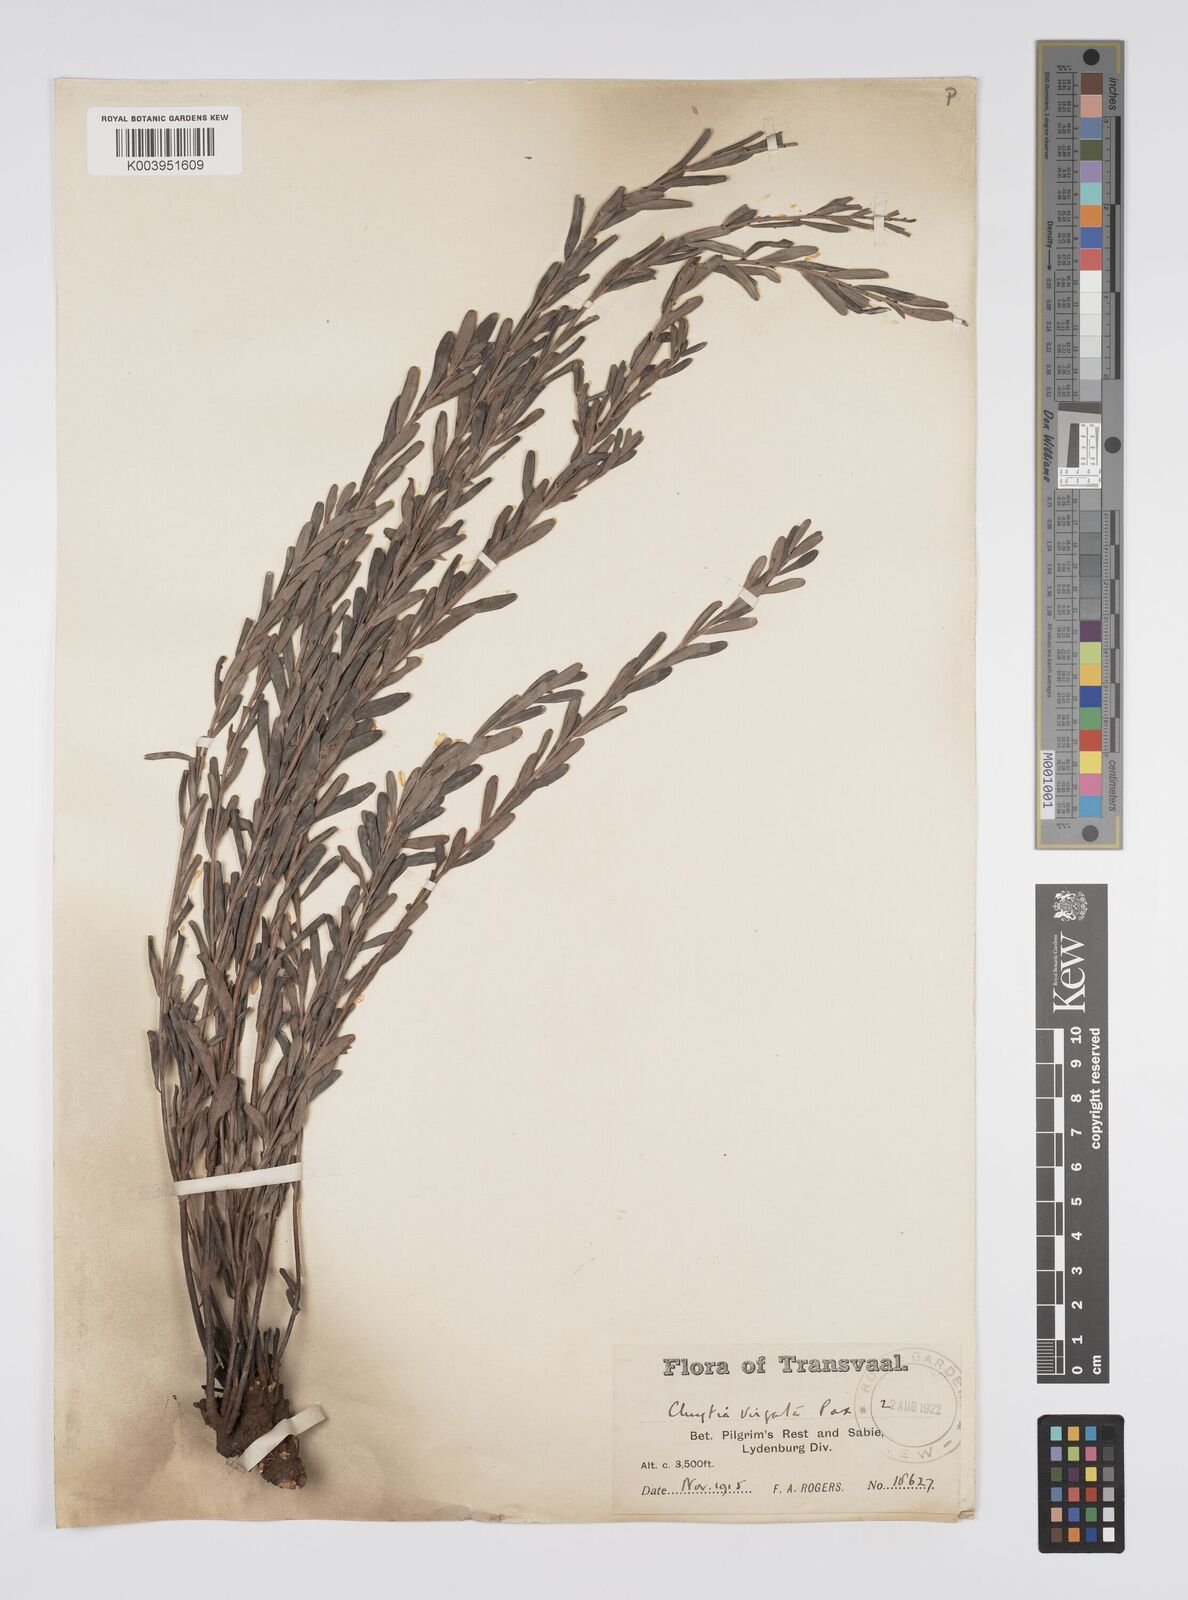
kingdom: Plantae
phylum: Tracheophyta
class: Magnoliopsida
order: Malpighiales
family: Peraceae
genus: Clutia
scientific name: Clutia virgata
